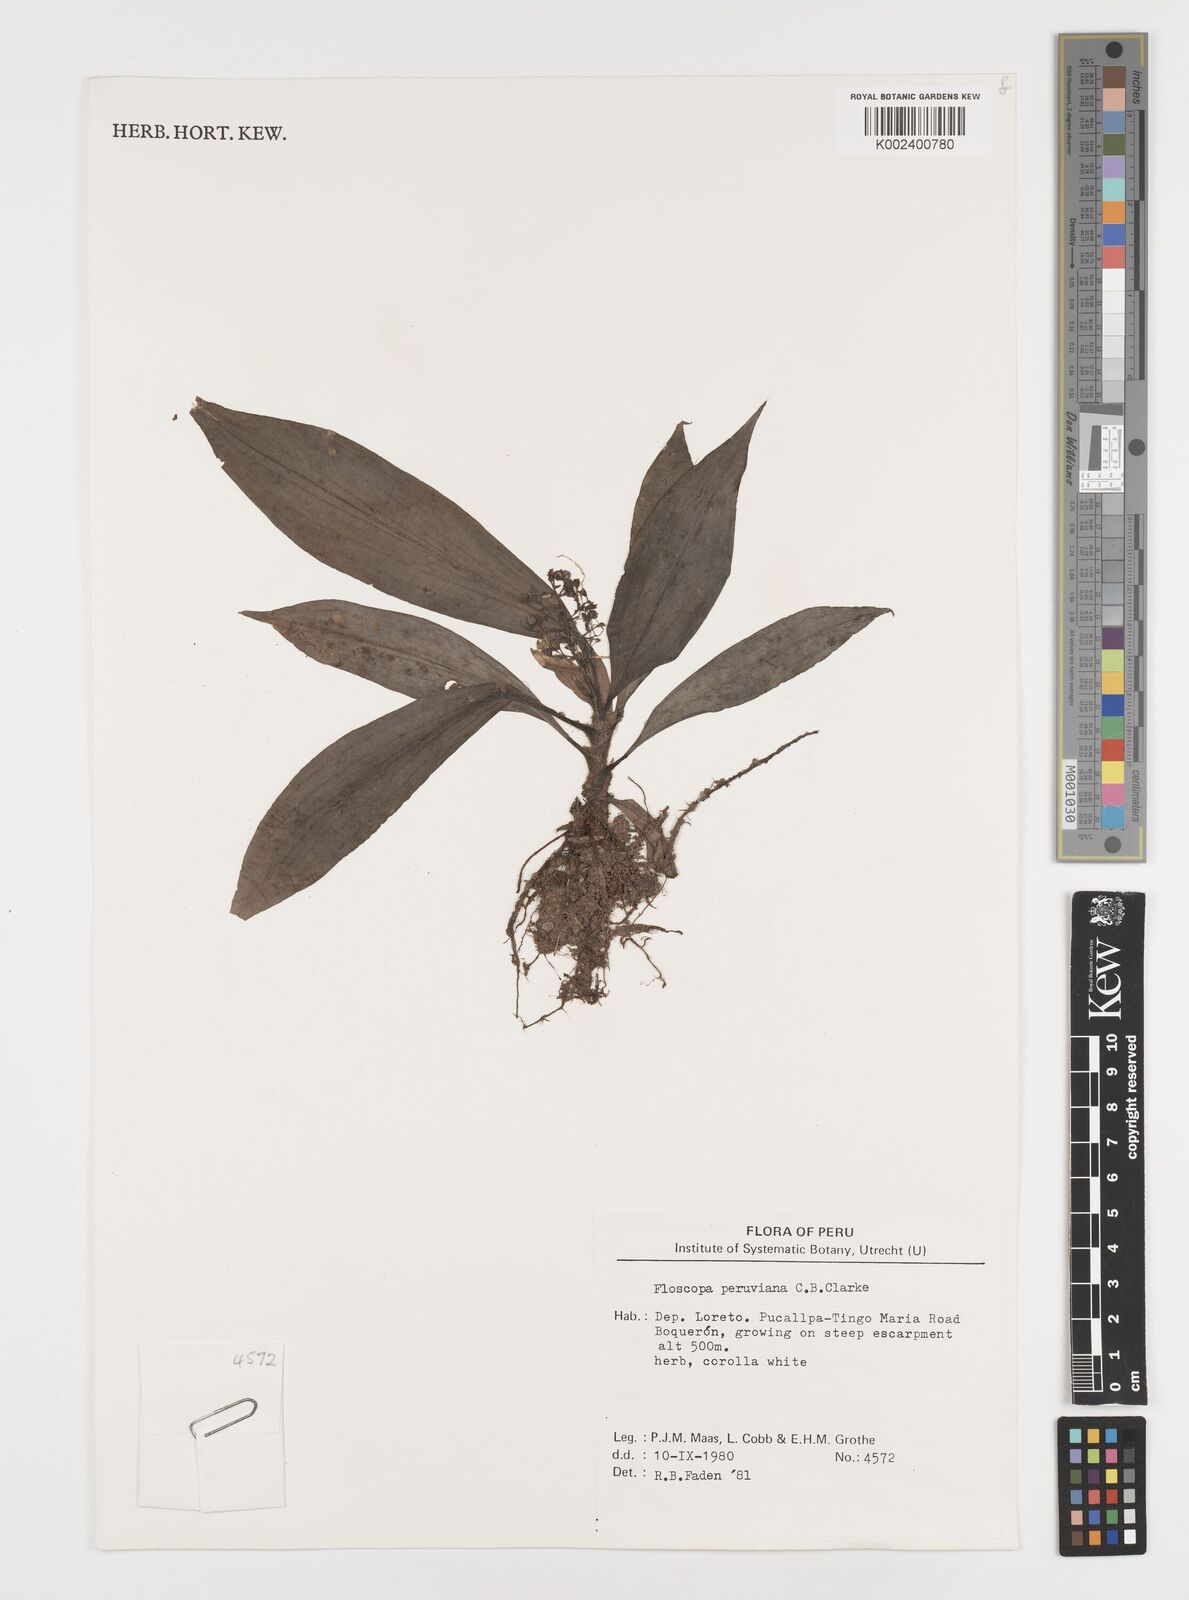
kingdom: Plantae
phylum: Tracheophyta
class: Liliopsida
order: Commelinales
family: Commelinaceae
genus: Floscopa
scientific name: Floscopa peruviana
